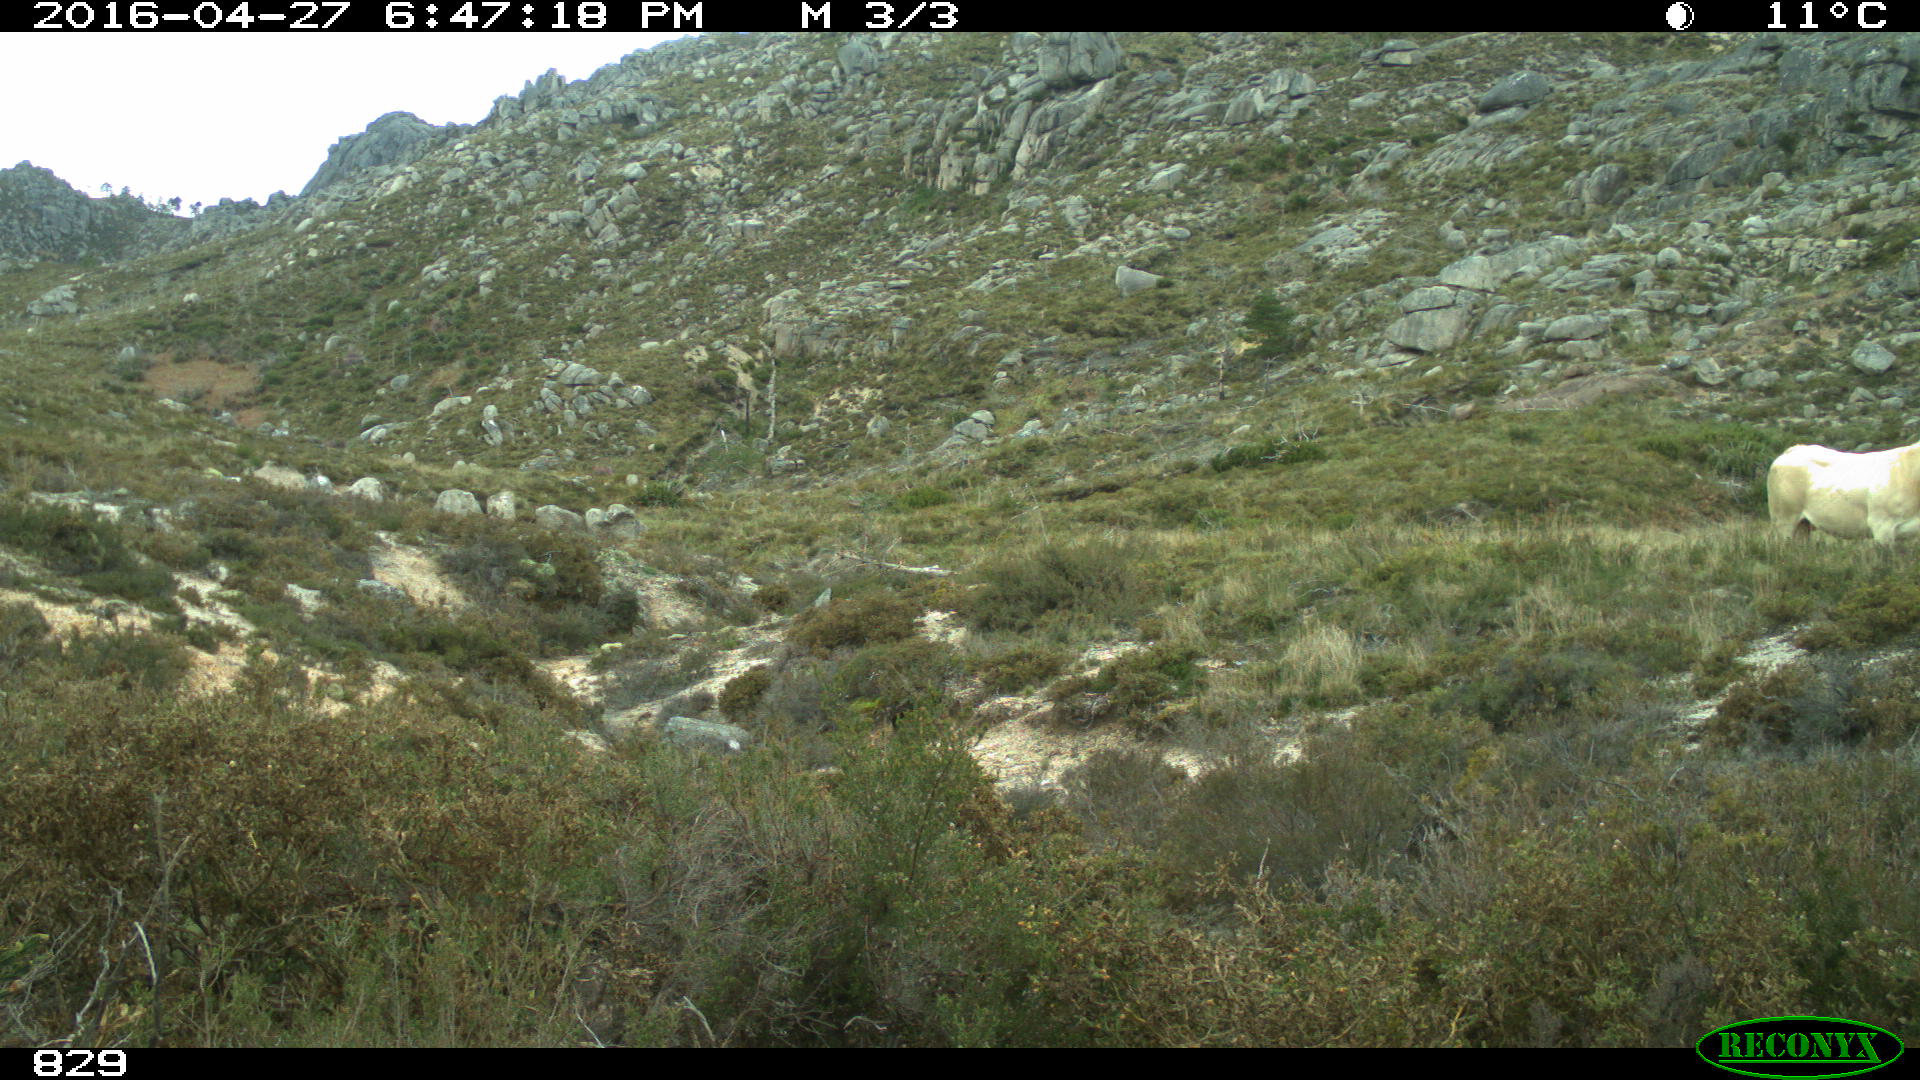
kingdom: Animalia
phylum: Chordata
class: Mammalia
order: Artiodactyla
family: Bovidae
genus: Bos
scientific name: Bos taurus
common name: Domesticated cattle
